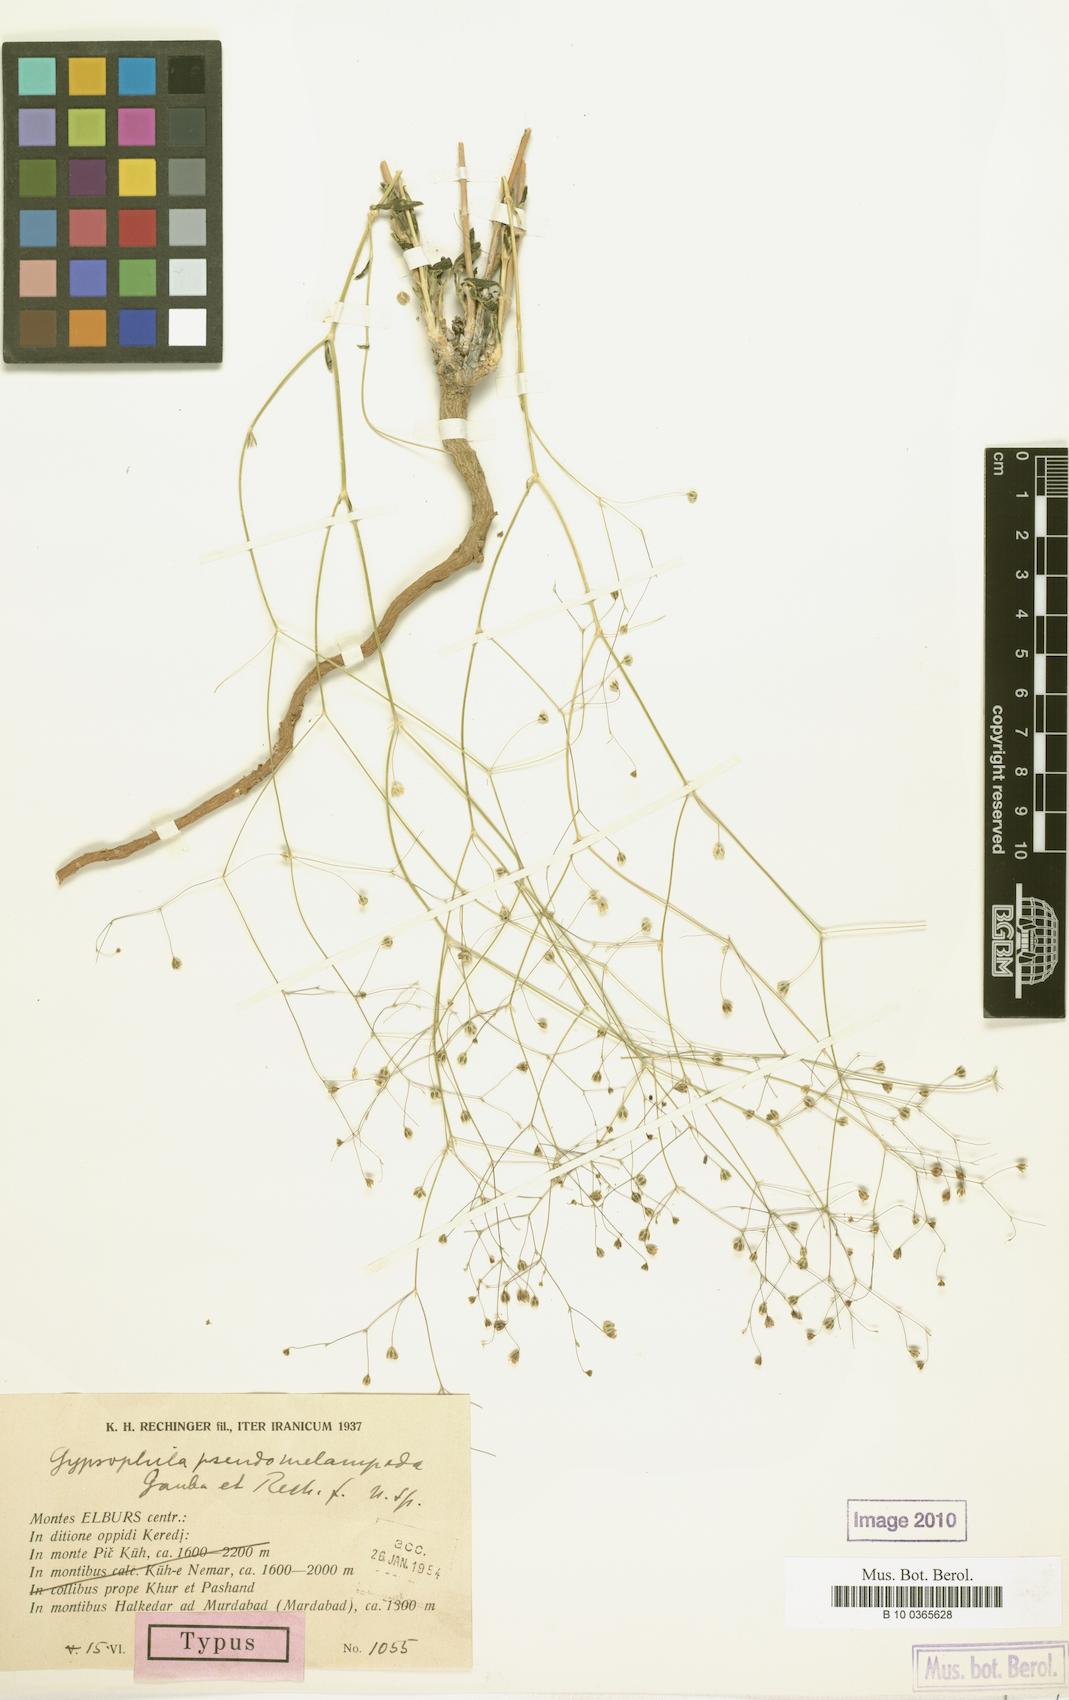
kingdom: Plantae
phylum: Tracheophyta
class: Magnoliopsida
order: Caryophyllales
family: Caryophyllaceae
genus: Gypsophila
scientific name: Gypsophila pseudomelampoda
